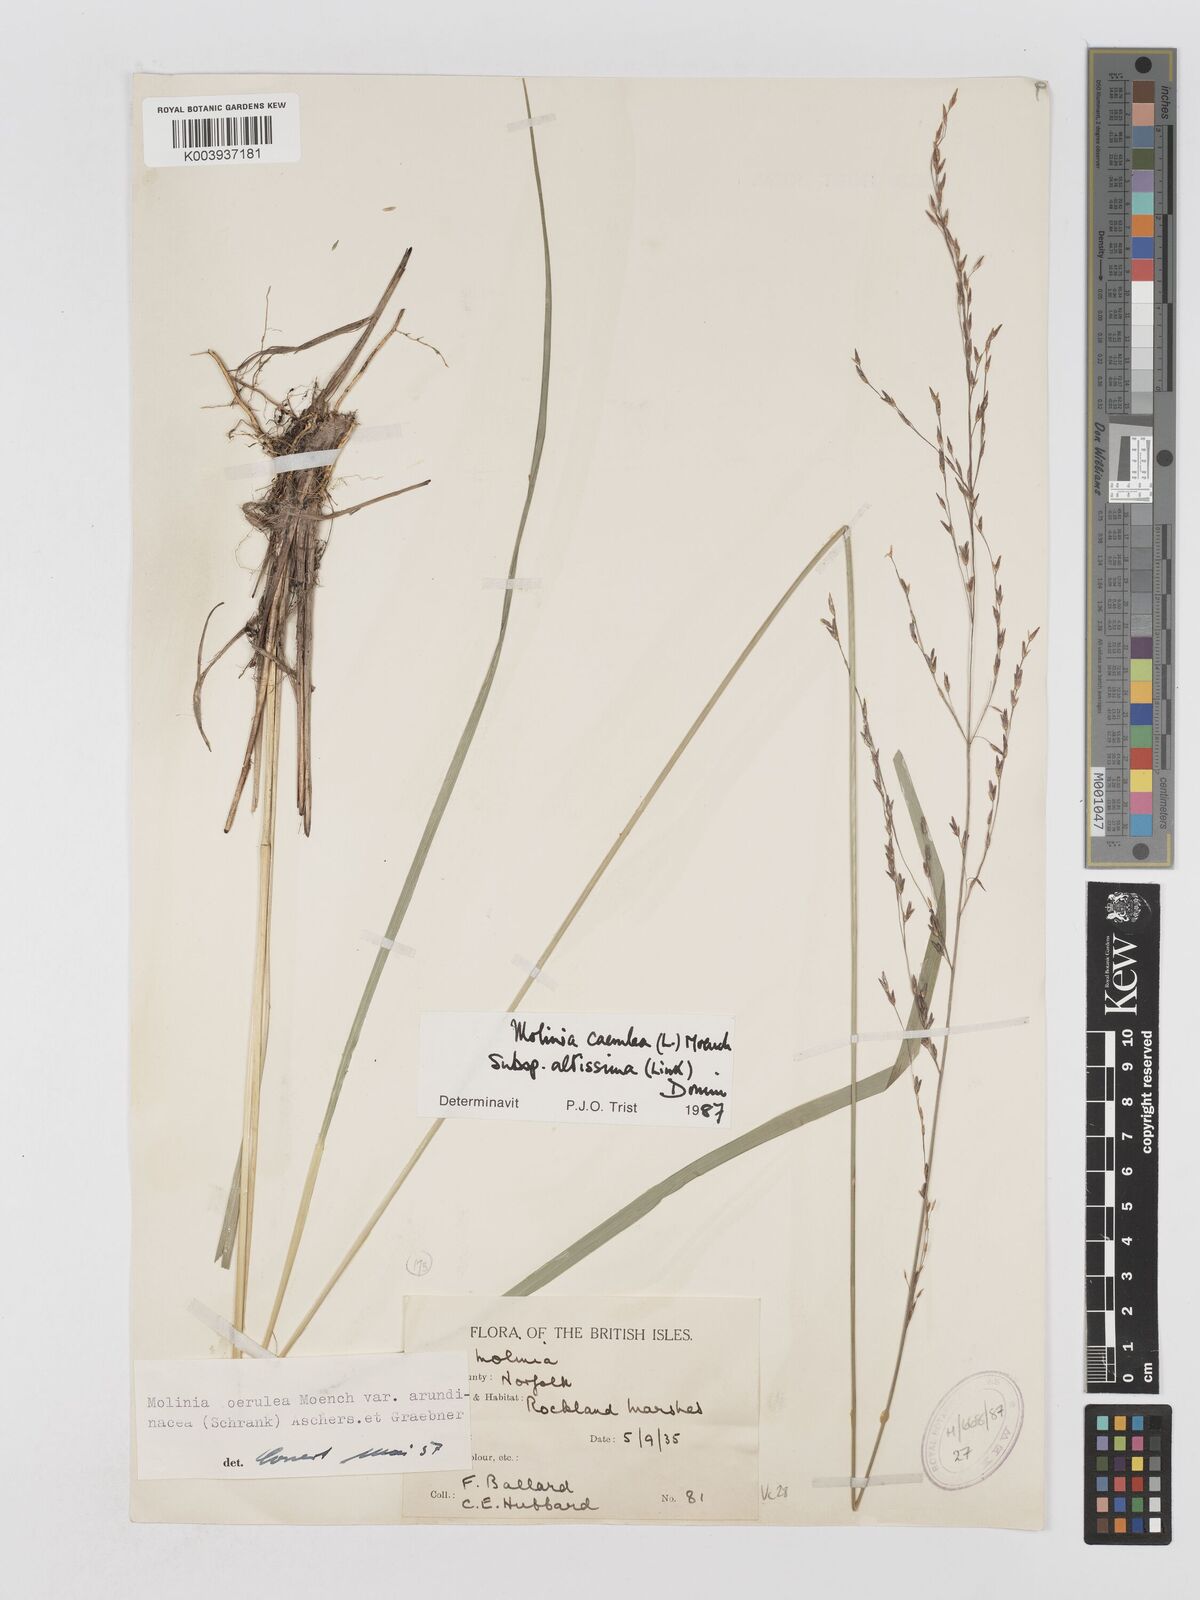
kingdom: Plantae
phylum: Tracheophyta
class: Liliopsida
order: Poales
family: Poaceae
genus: Molinia
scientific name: Molinia caerulea
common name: Purple moor-grass
